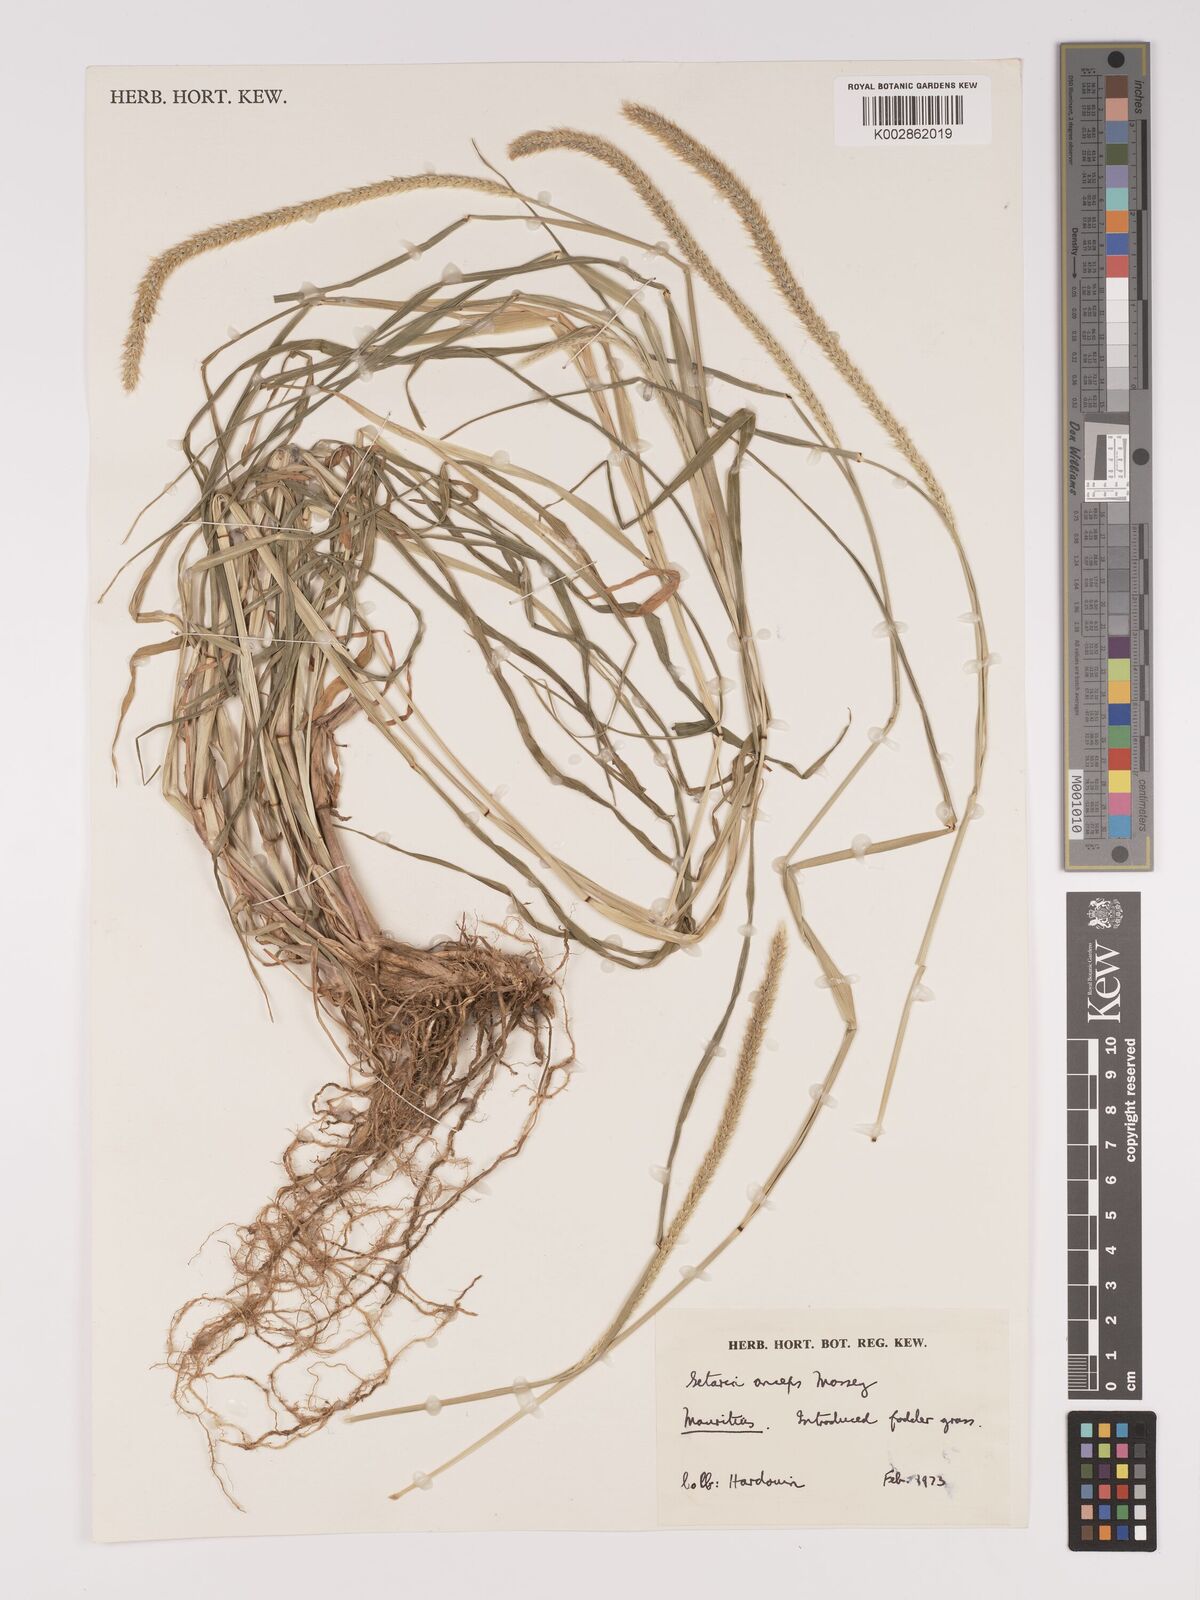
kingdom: Plantae
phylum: Tracheophyta
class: Liliopsida
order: Poales
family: Poaceae
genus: Setaria
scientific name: Setaria sphacelata
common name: African bristlegrass
